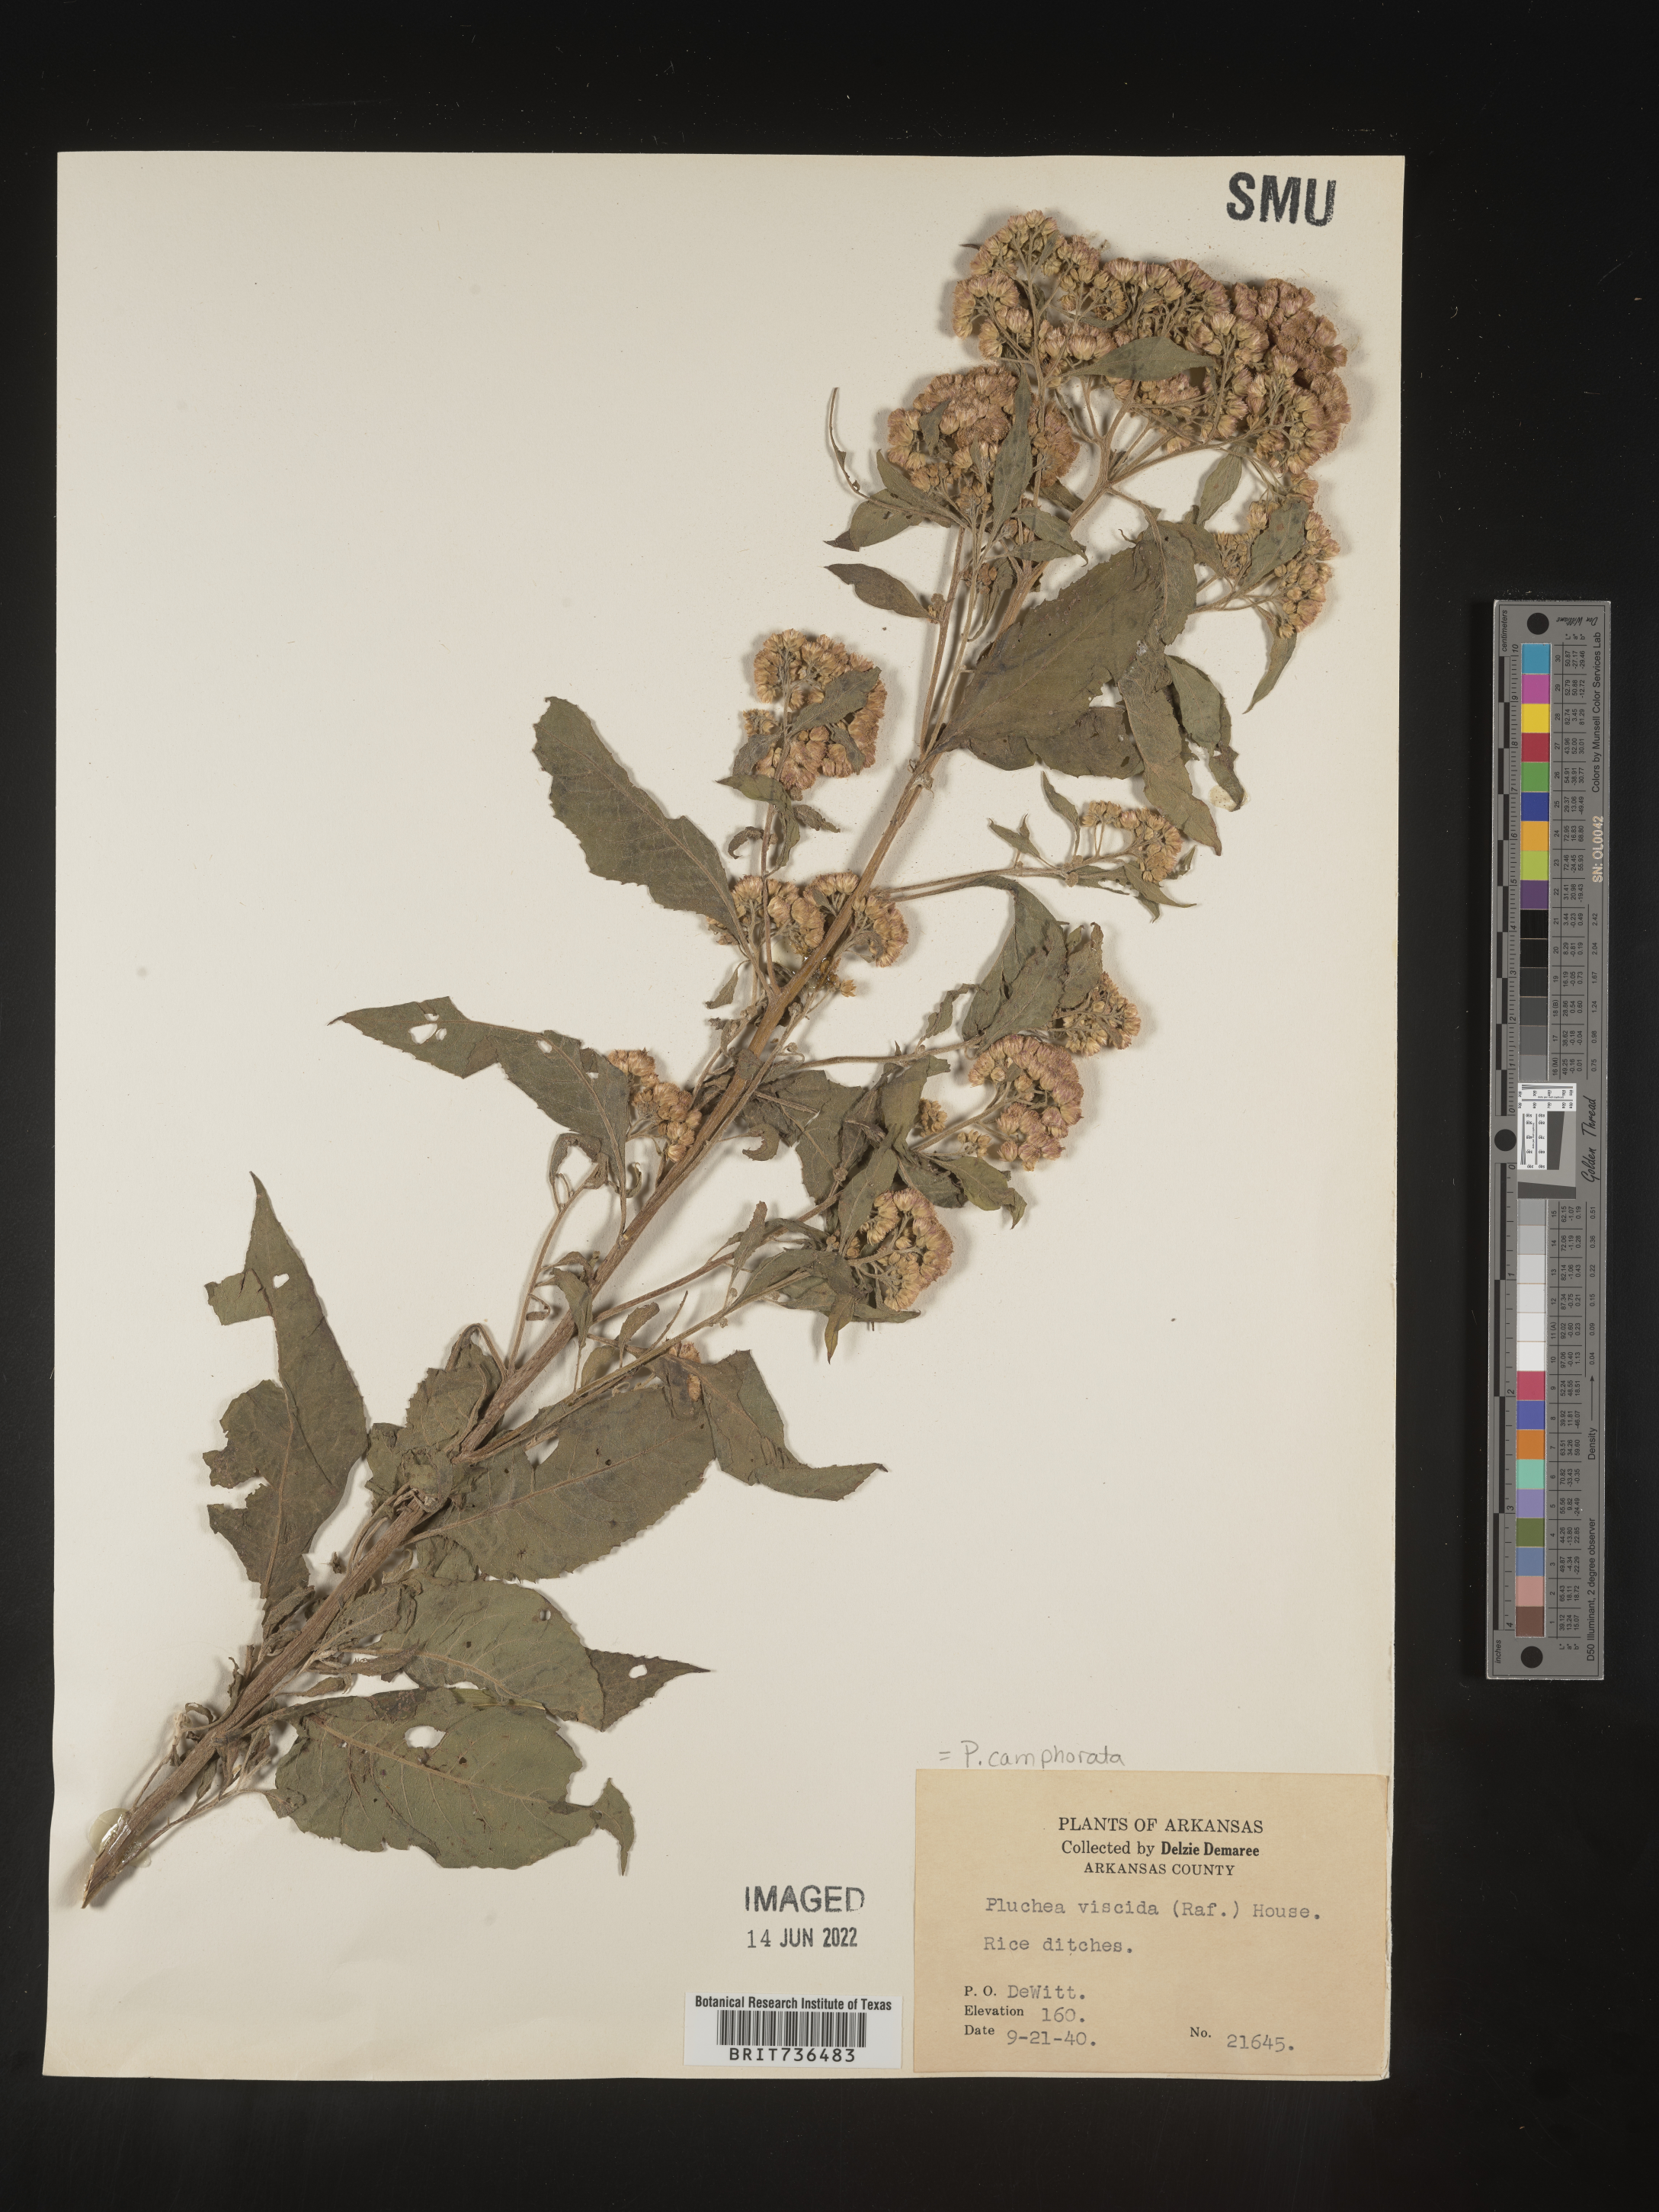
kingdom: Plantae
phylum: Tracheophyta
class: Magnoliopsida
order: Asterales
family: Asteraceae
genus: Pluchea
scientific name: Pluchea camphorata
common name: Camphor pluchea
